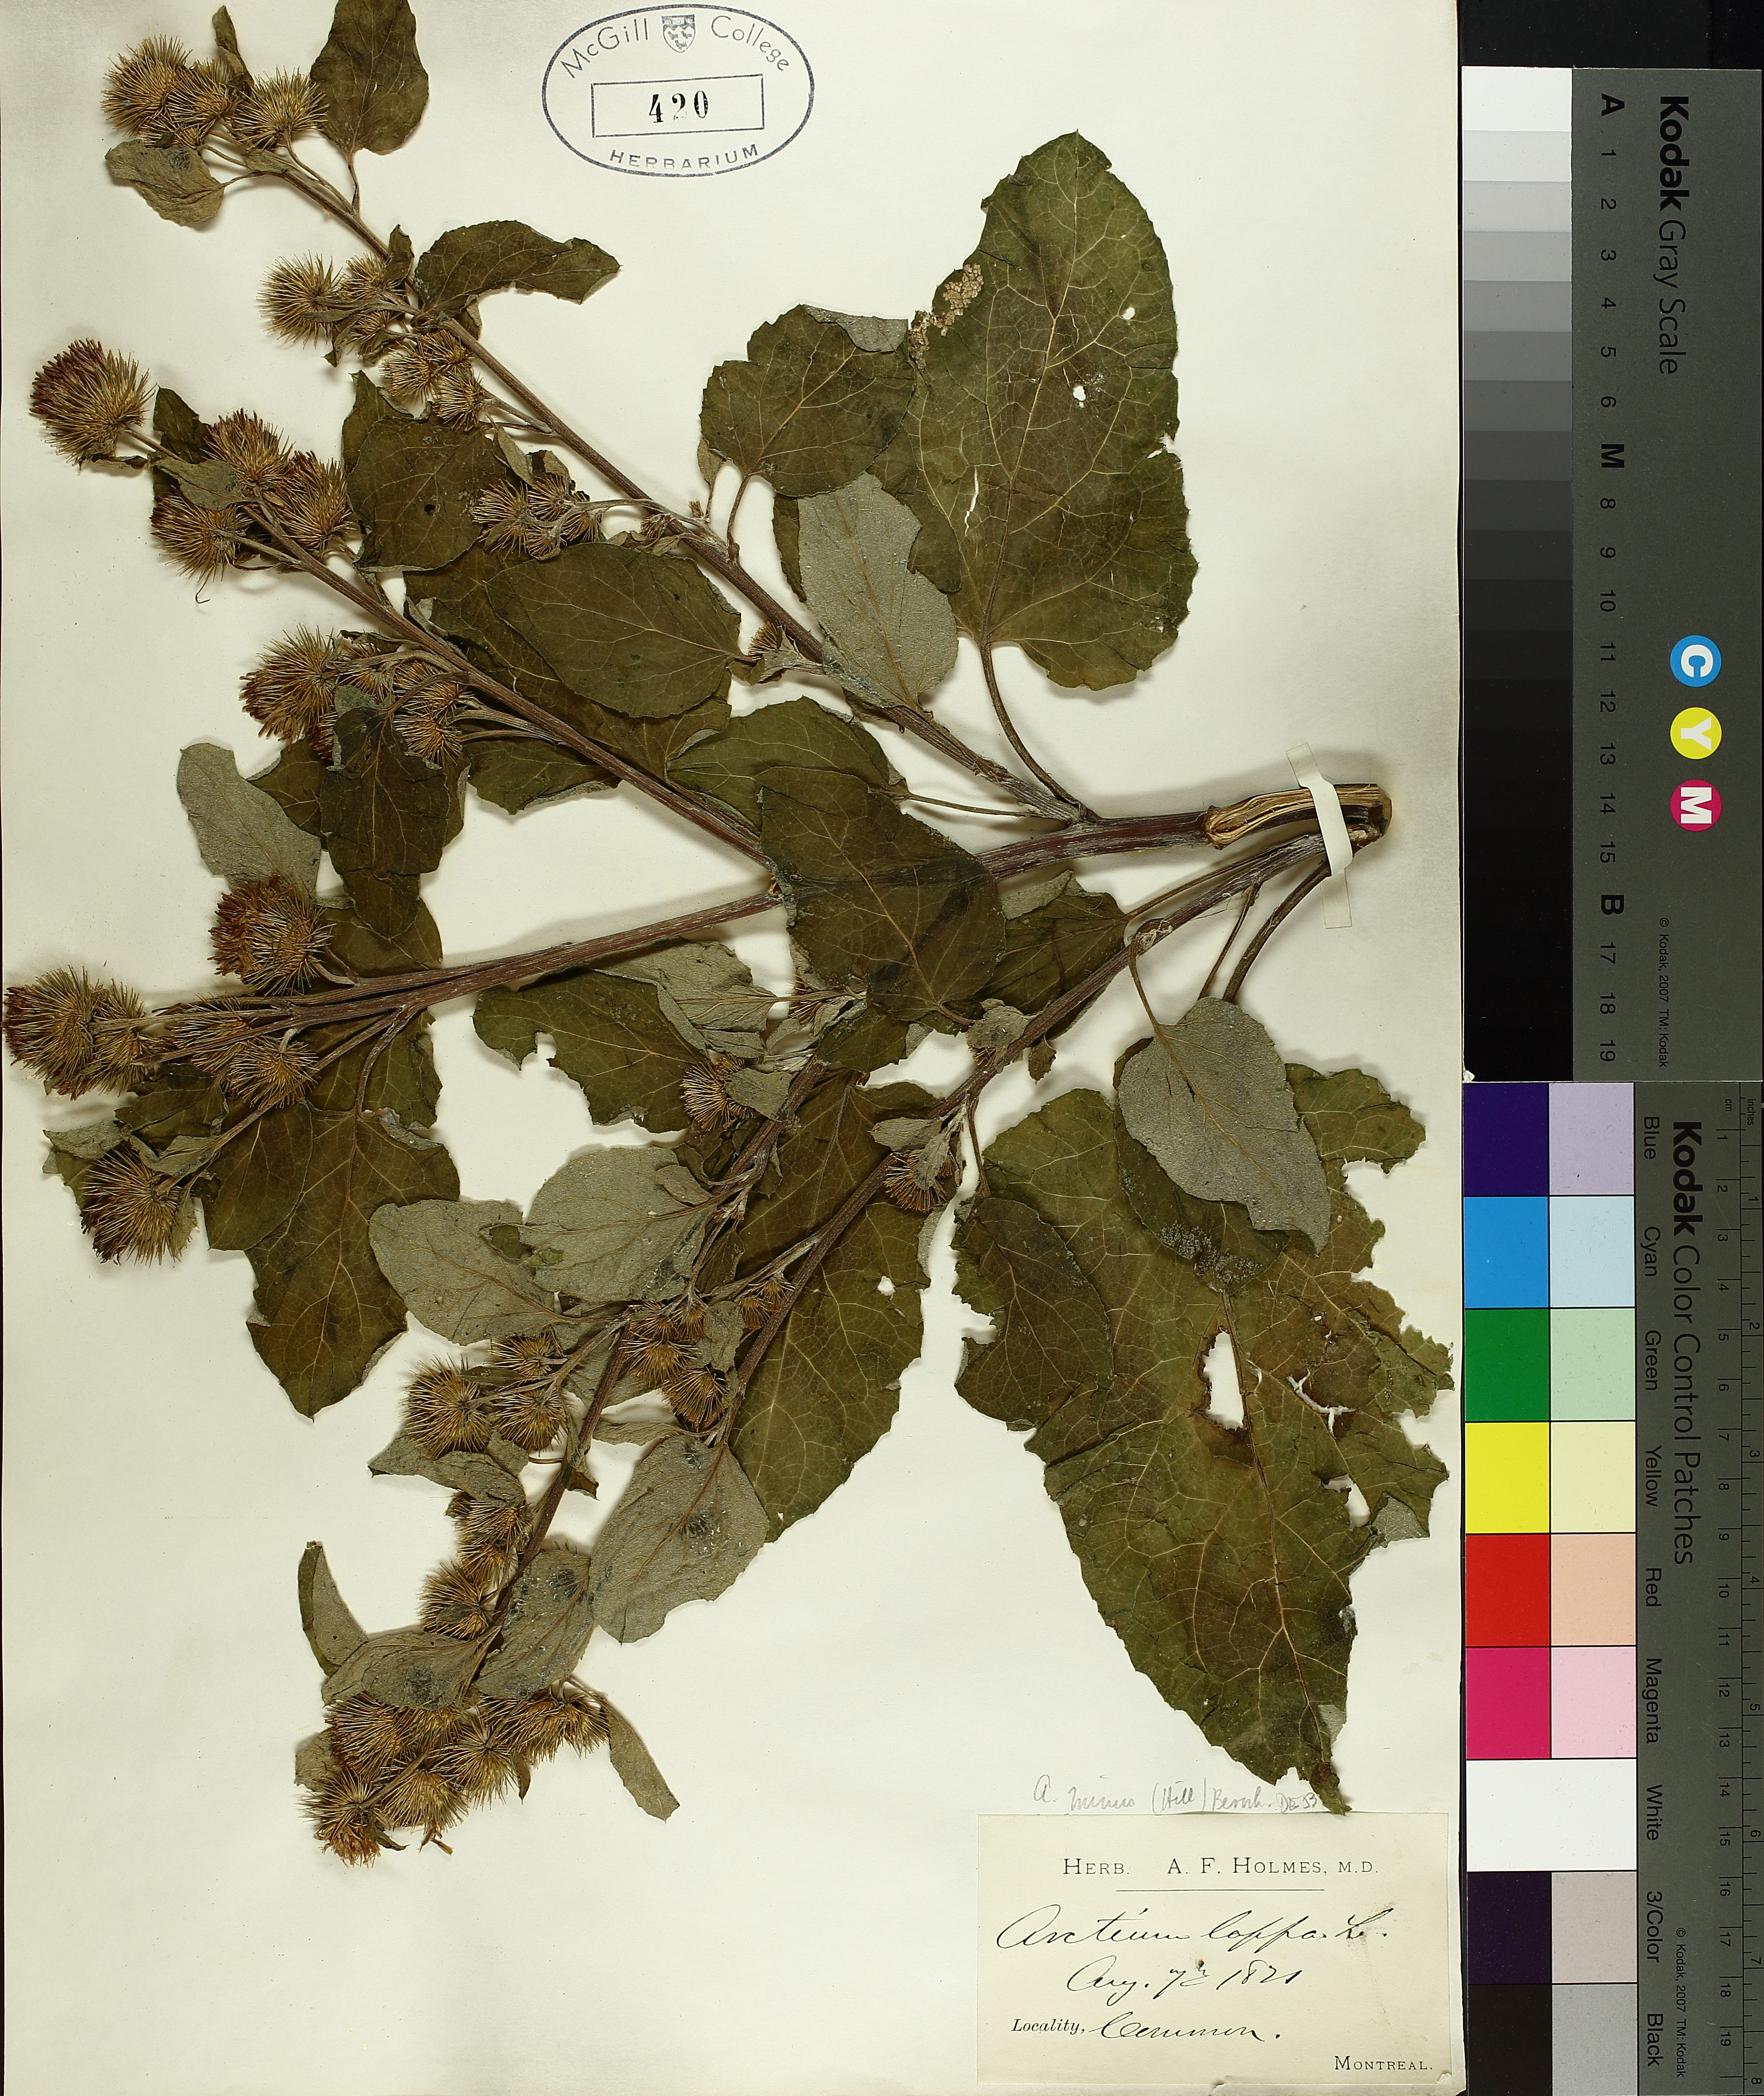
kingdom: Plantae
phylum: Tracheophyta
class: Magnoliopsida
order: Asterales
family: Asteraceae
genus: Artemisia
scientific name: Artemisia vulgaris
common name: Mugwort
